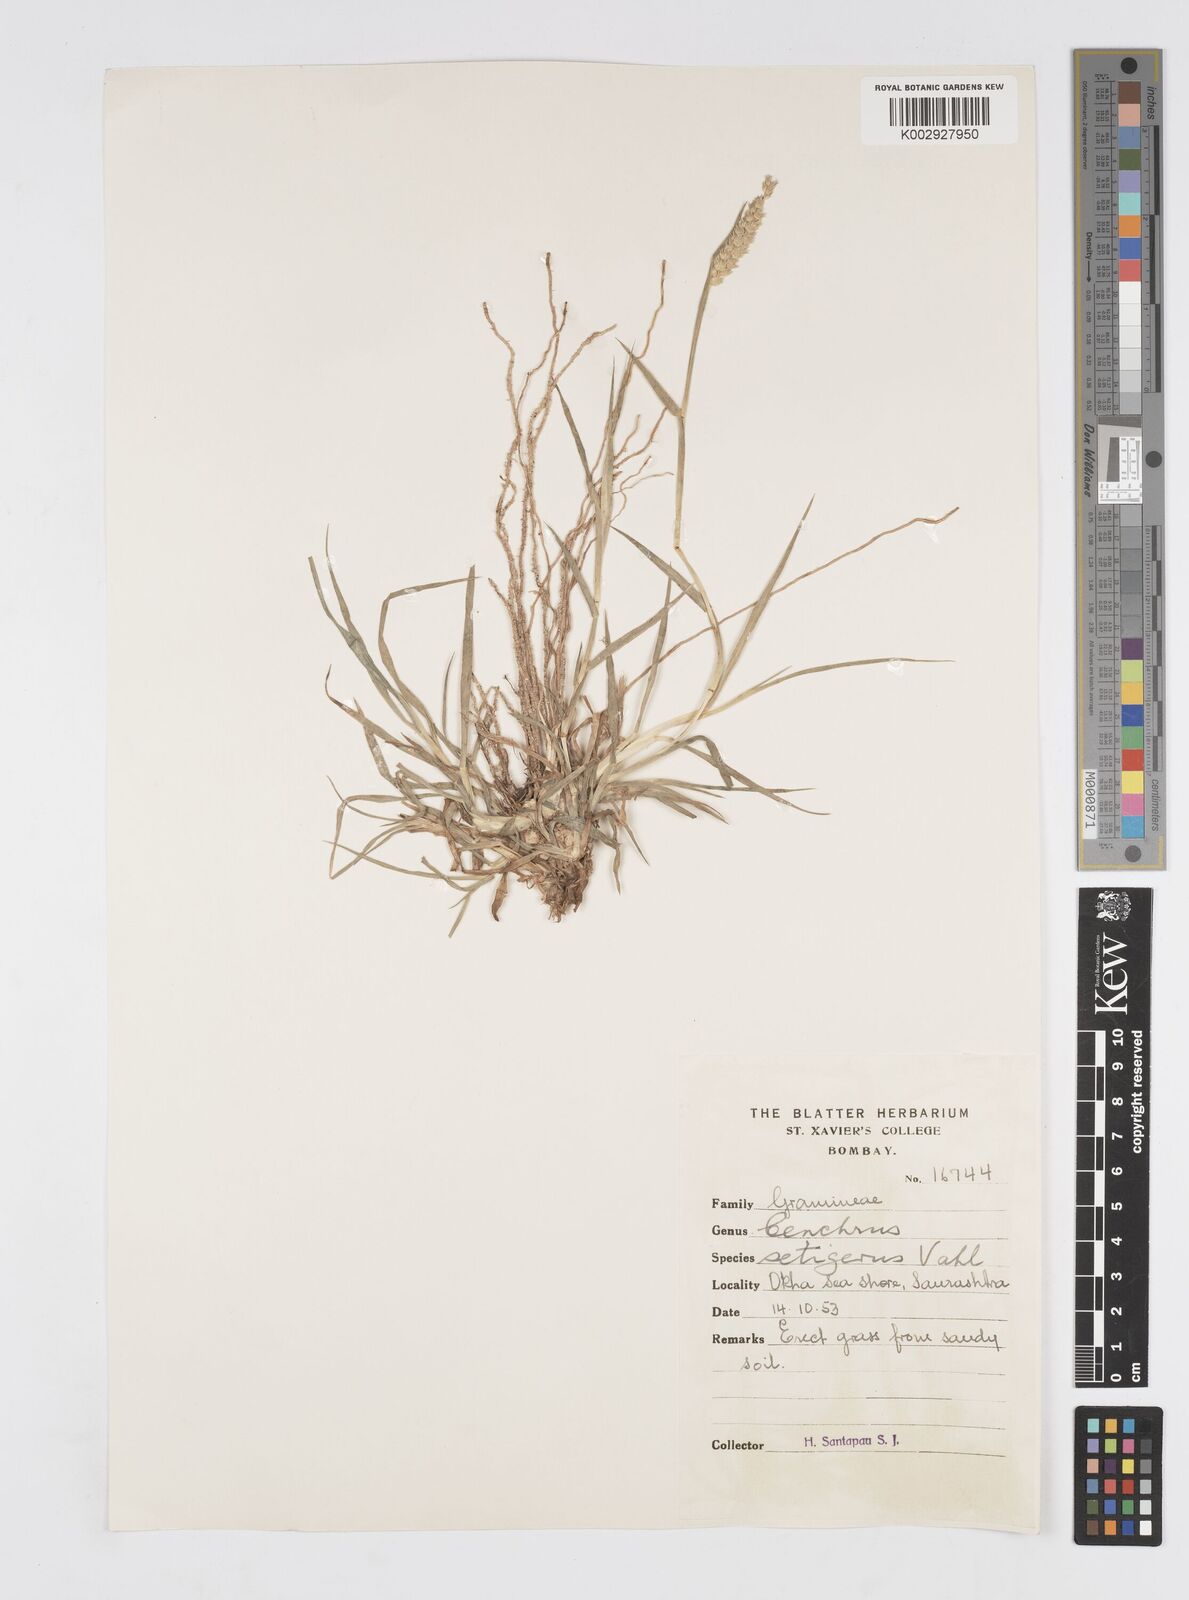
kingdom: Plantae
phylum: Tracheophyta
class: Liliopsida
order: Poales
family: Poaceae
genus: Cenchrus
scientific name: Cenchrus setigerus
